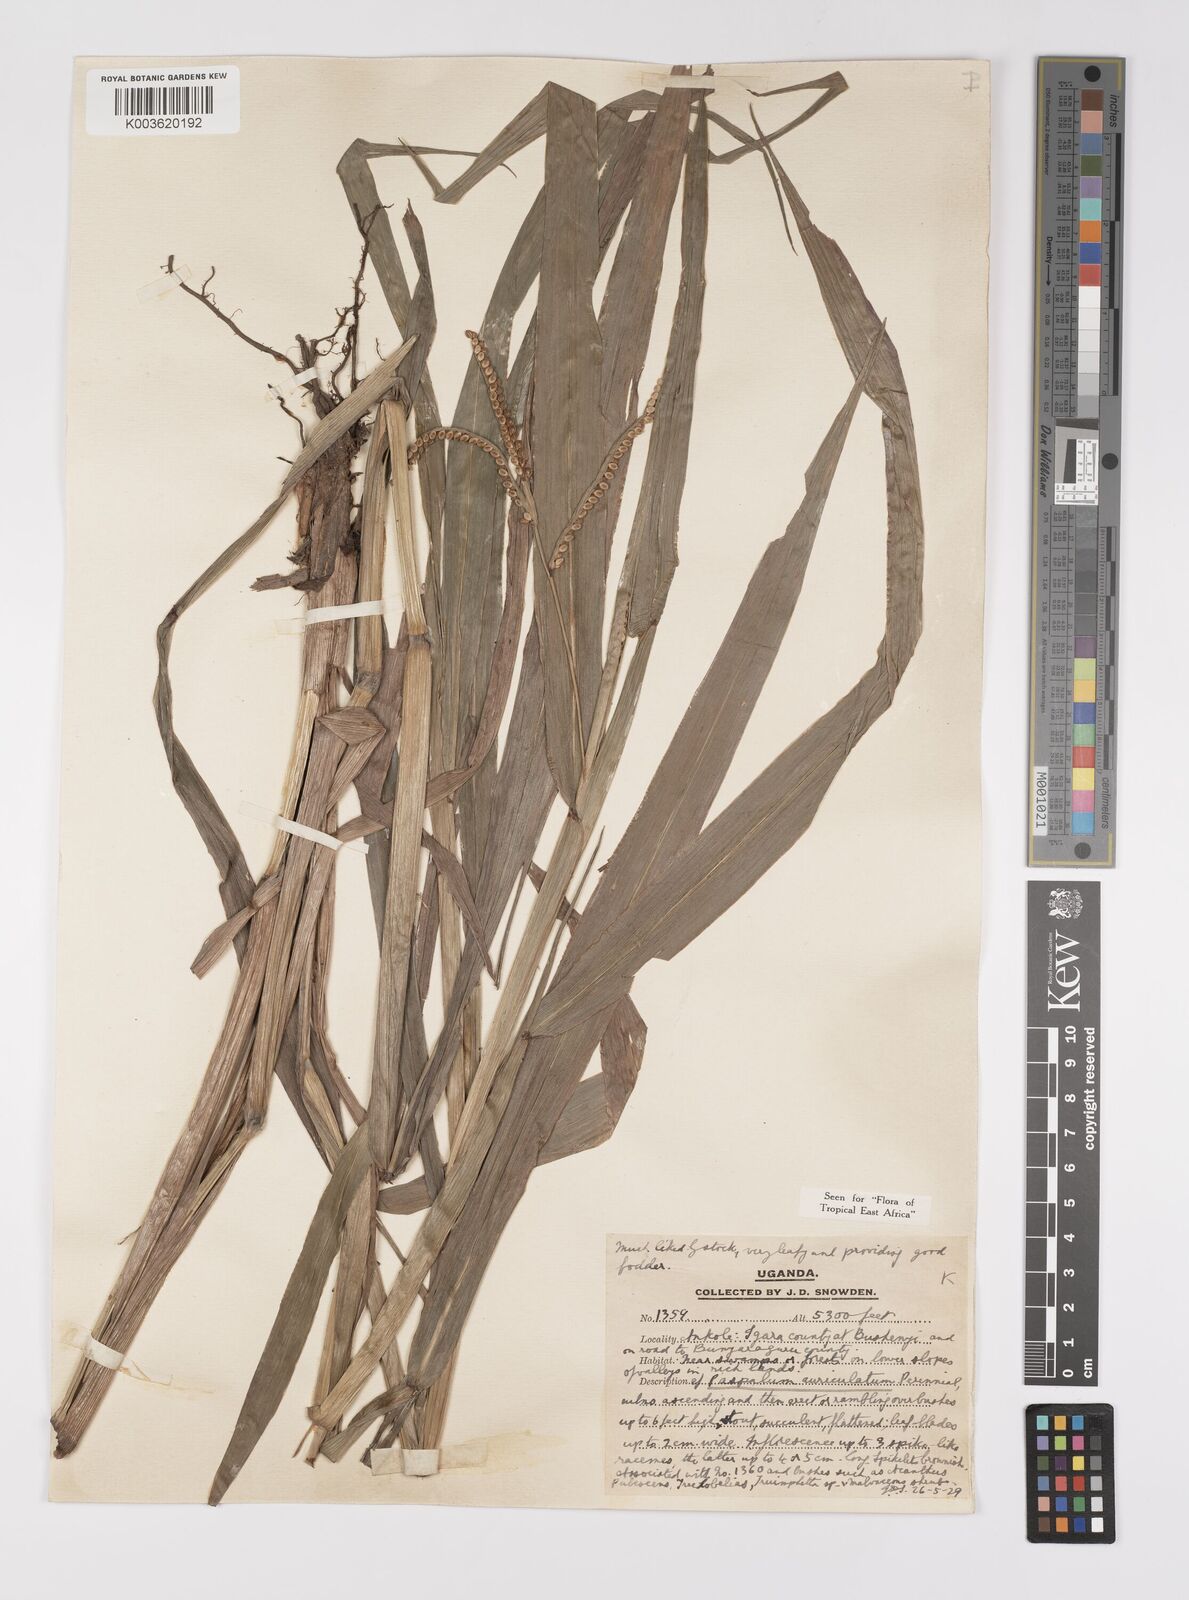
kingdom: Plantae
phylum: Tracheophyta
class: Liliopsida
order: Poales
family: Poaceae
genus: Paspalum
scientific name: Paspalum lamprocaryon
